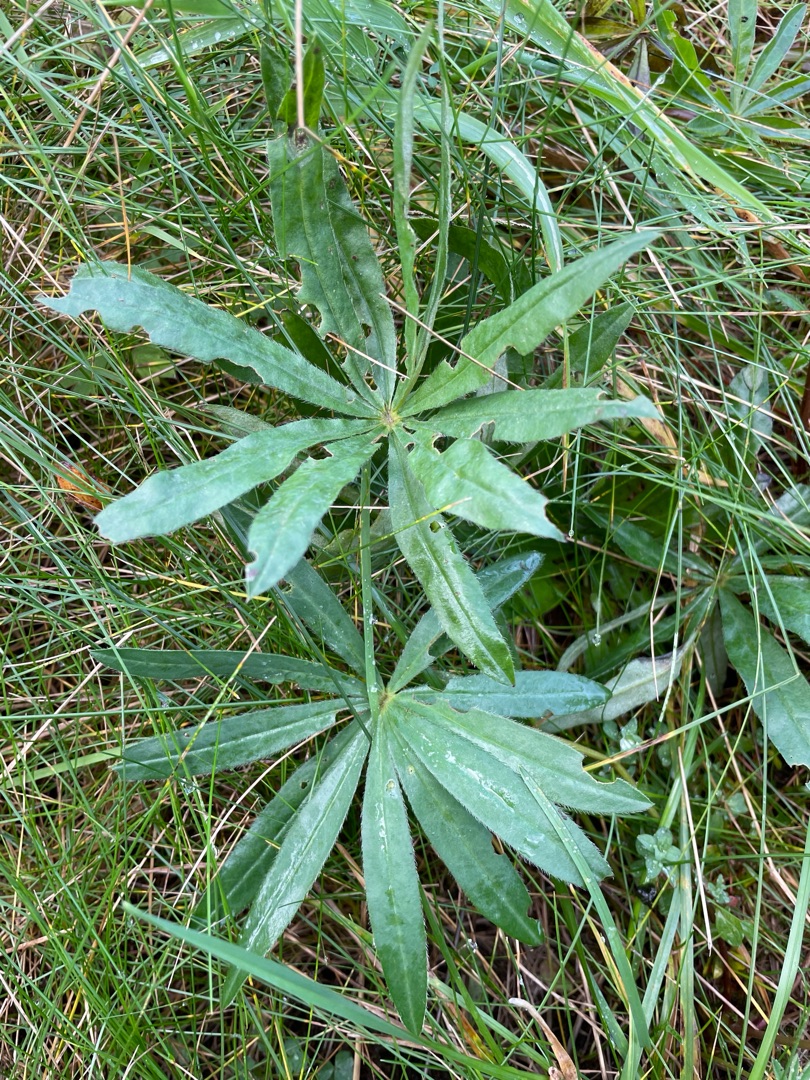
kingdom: Plantae
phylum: Tracheophyta
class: Magnoliopsida
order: Fabales
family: Fabaceae
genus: Lupinus
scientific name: Lupinus polyphyllus
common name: Mangebladet lupin
